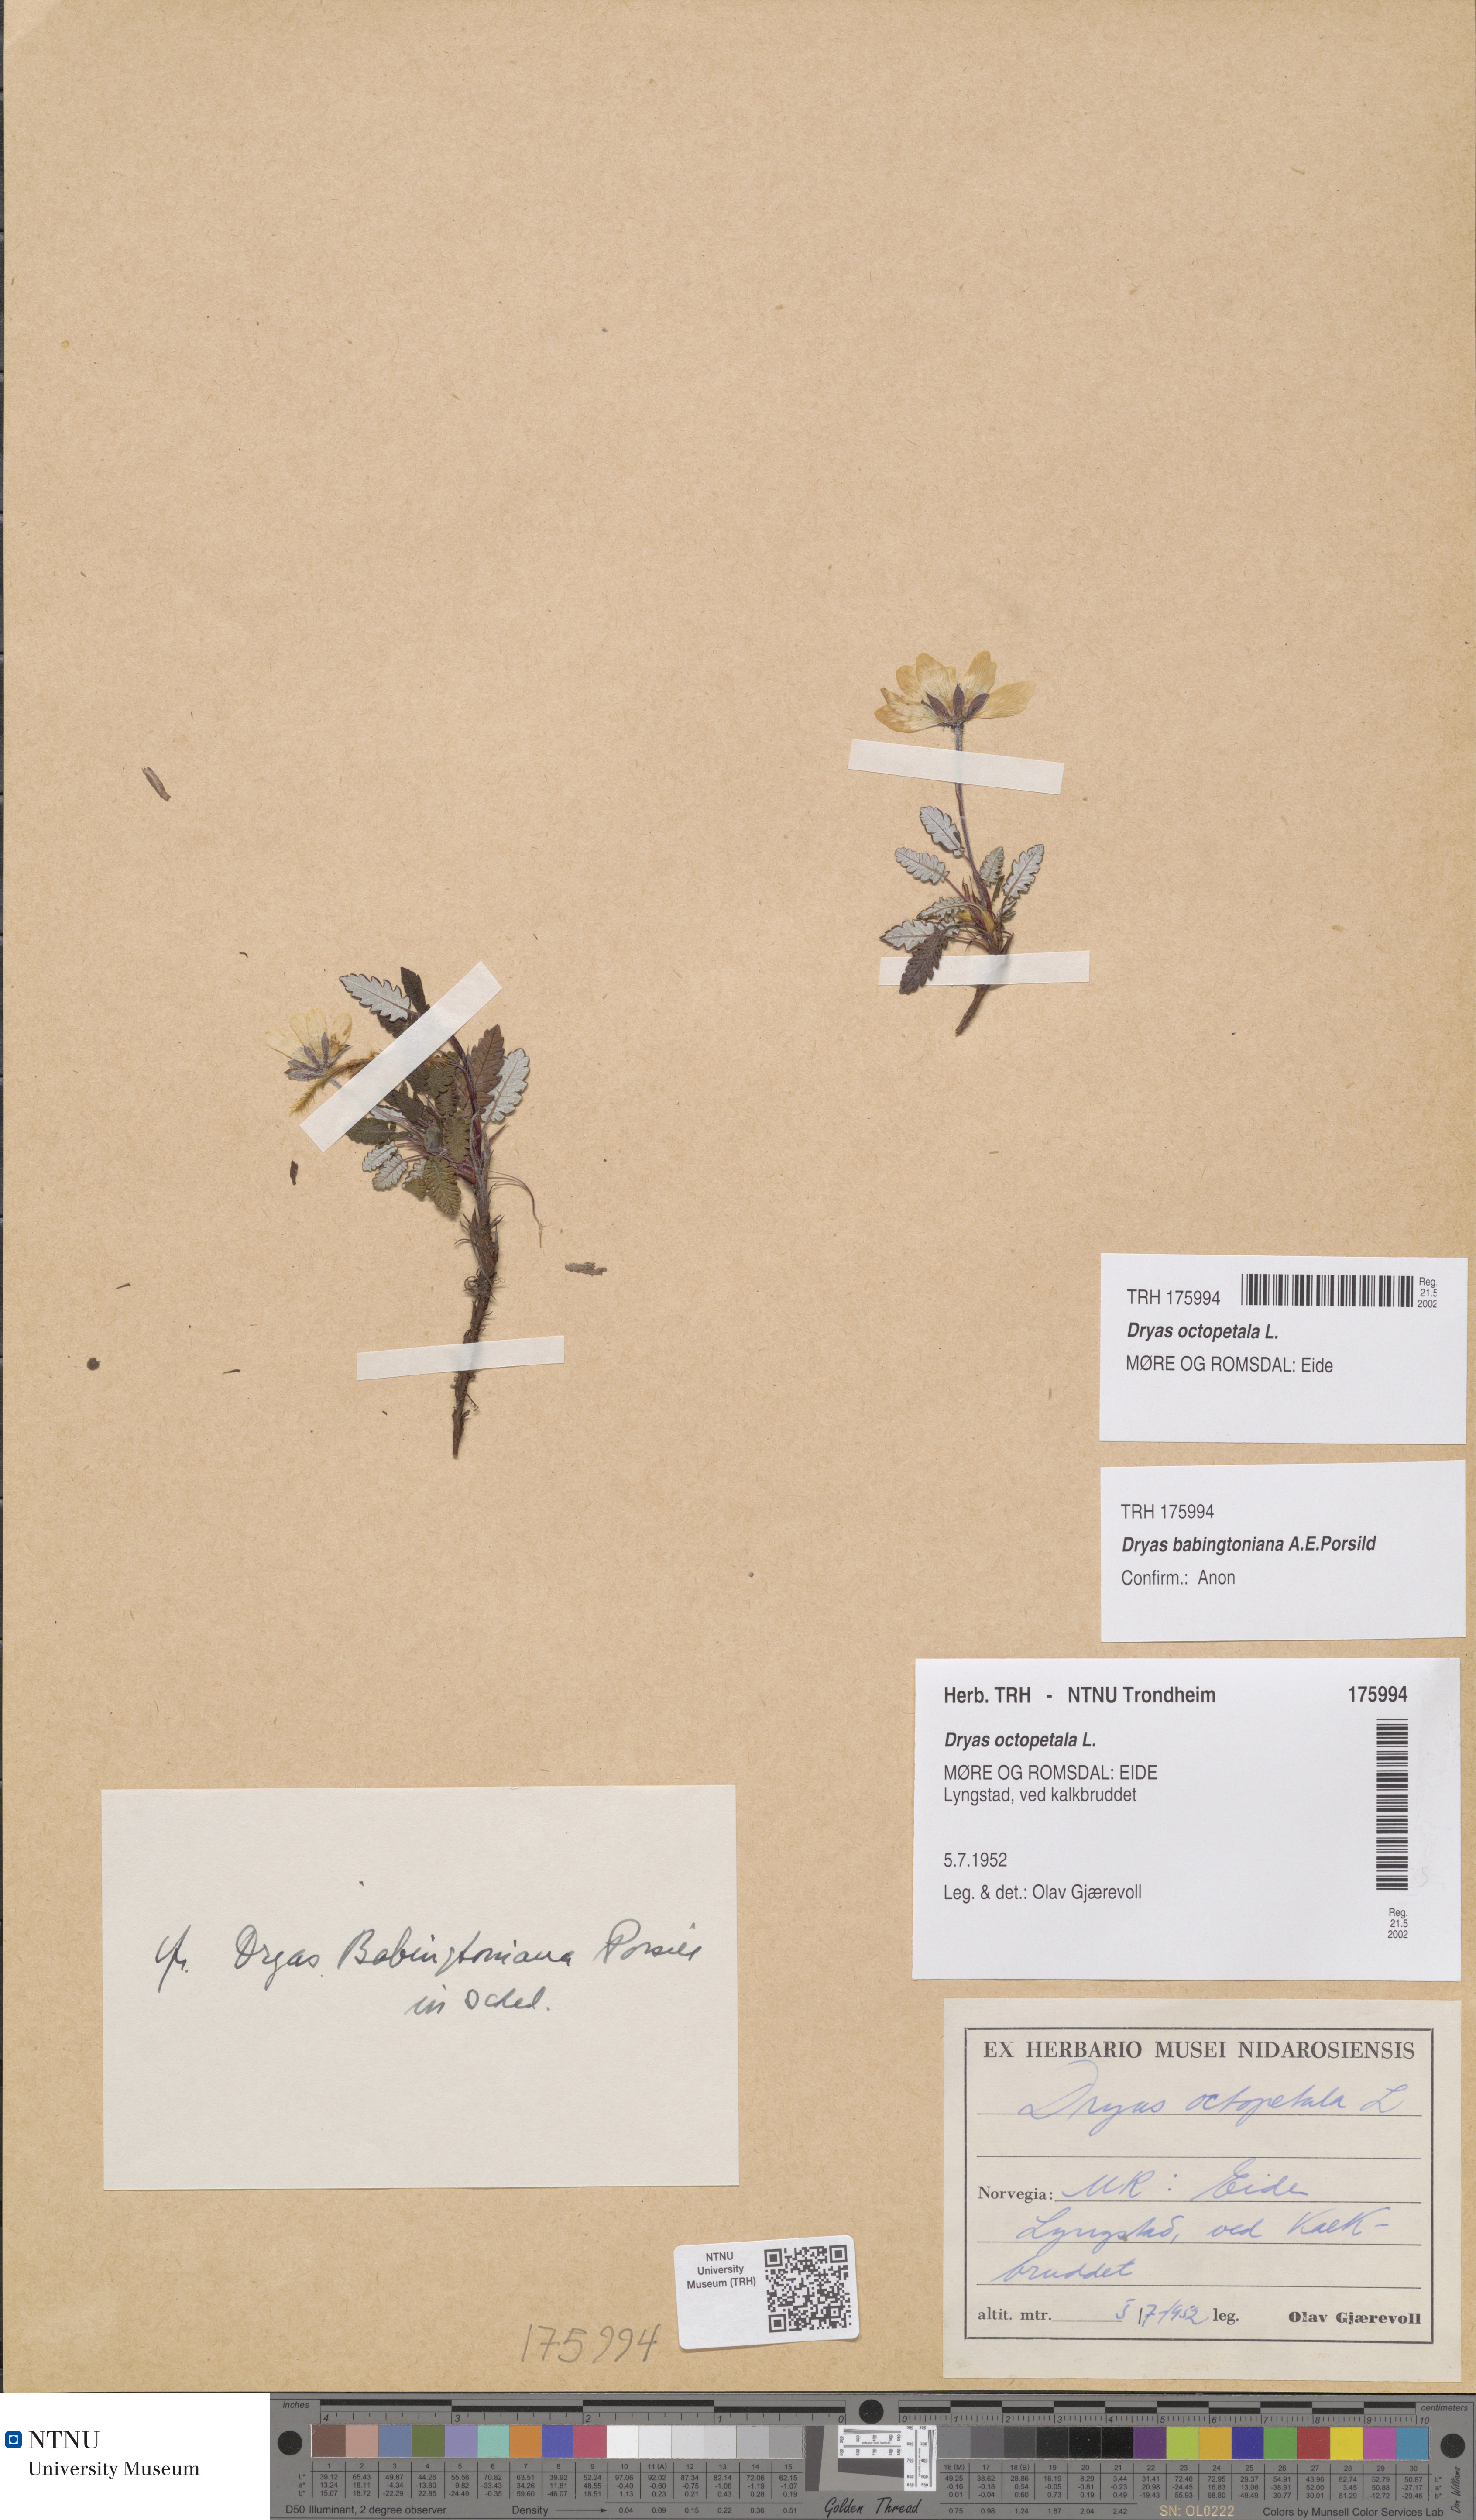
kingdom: Plantae
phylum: Tracheophyta
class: Magnoliopsida
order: Rosales
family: Rosaceae
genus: Dryas
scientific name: Dryas octopetala
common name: Eight-petal mountain-avens
